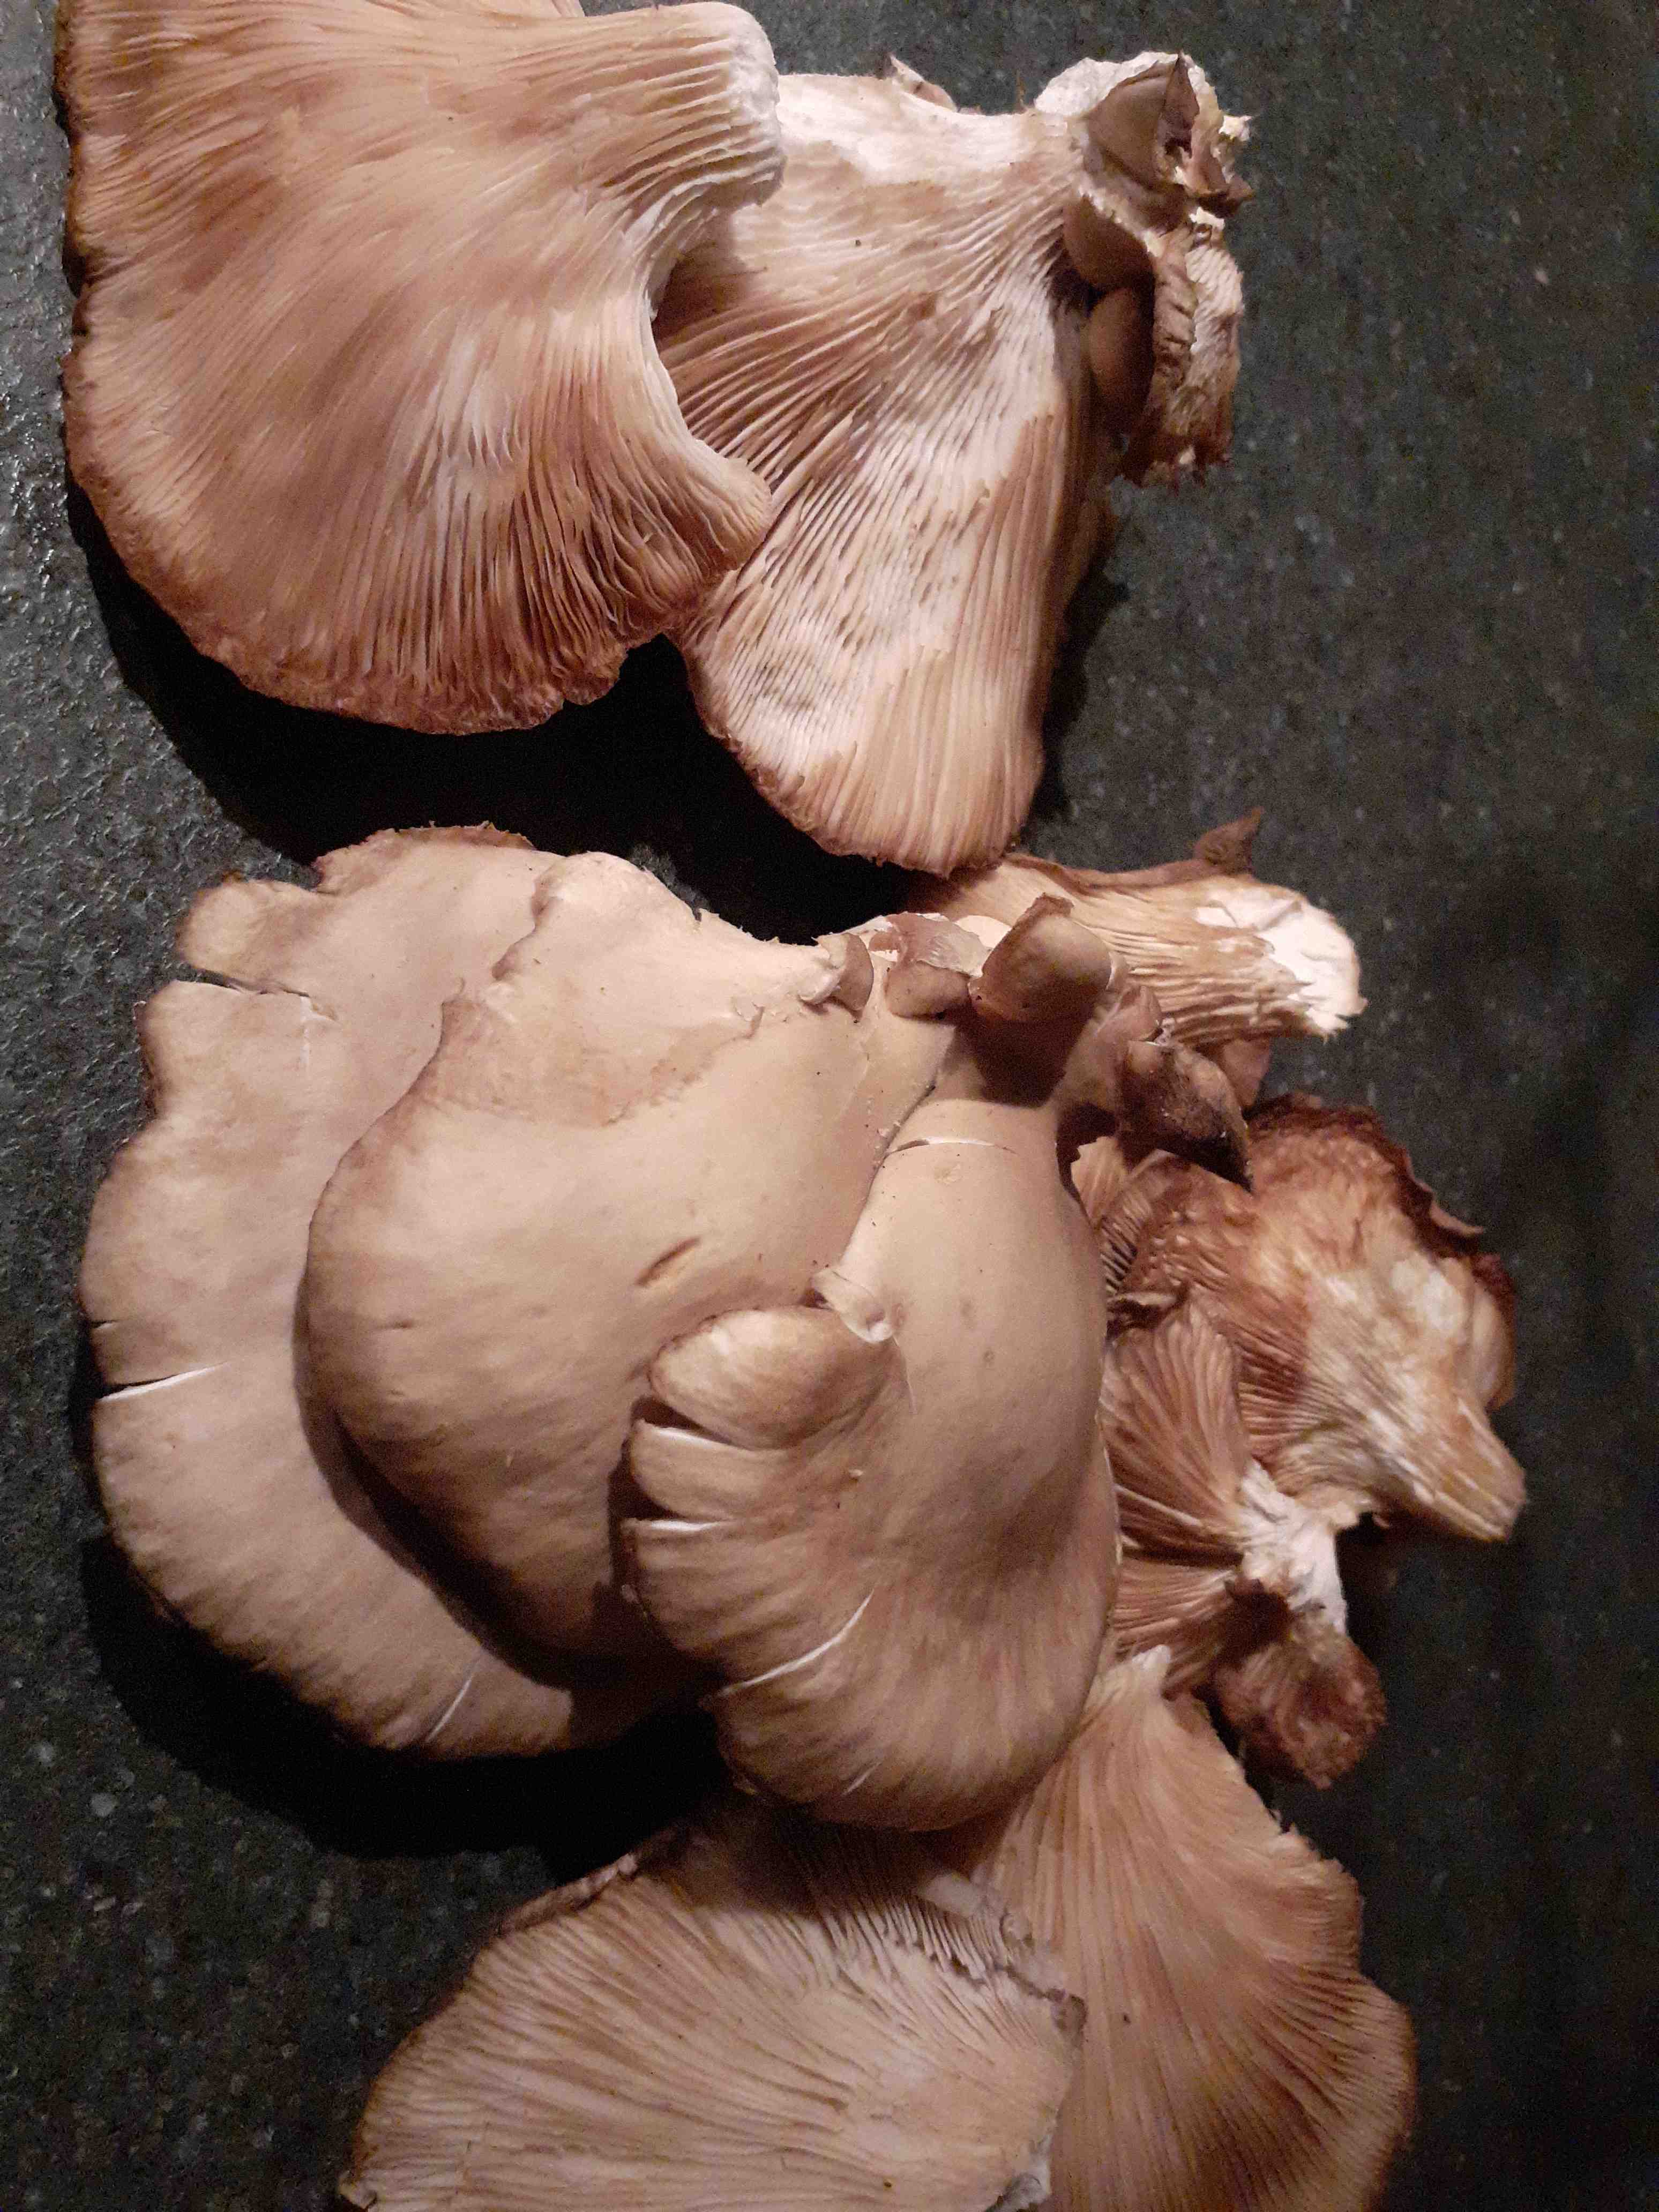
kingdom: Fungi
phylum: Basidiomycota
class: Agaricomycetes
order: Agaricales
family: Pleurotaceae
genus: Pleurotus
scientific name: Pleurotus ostreatus
